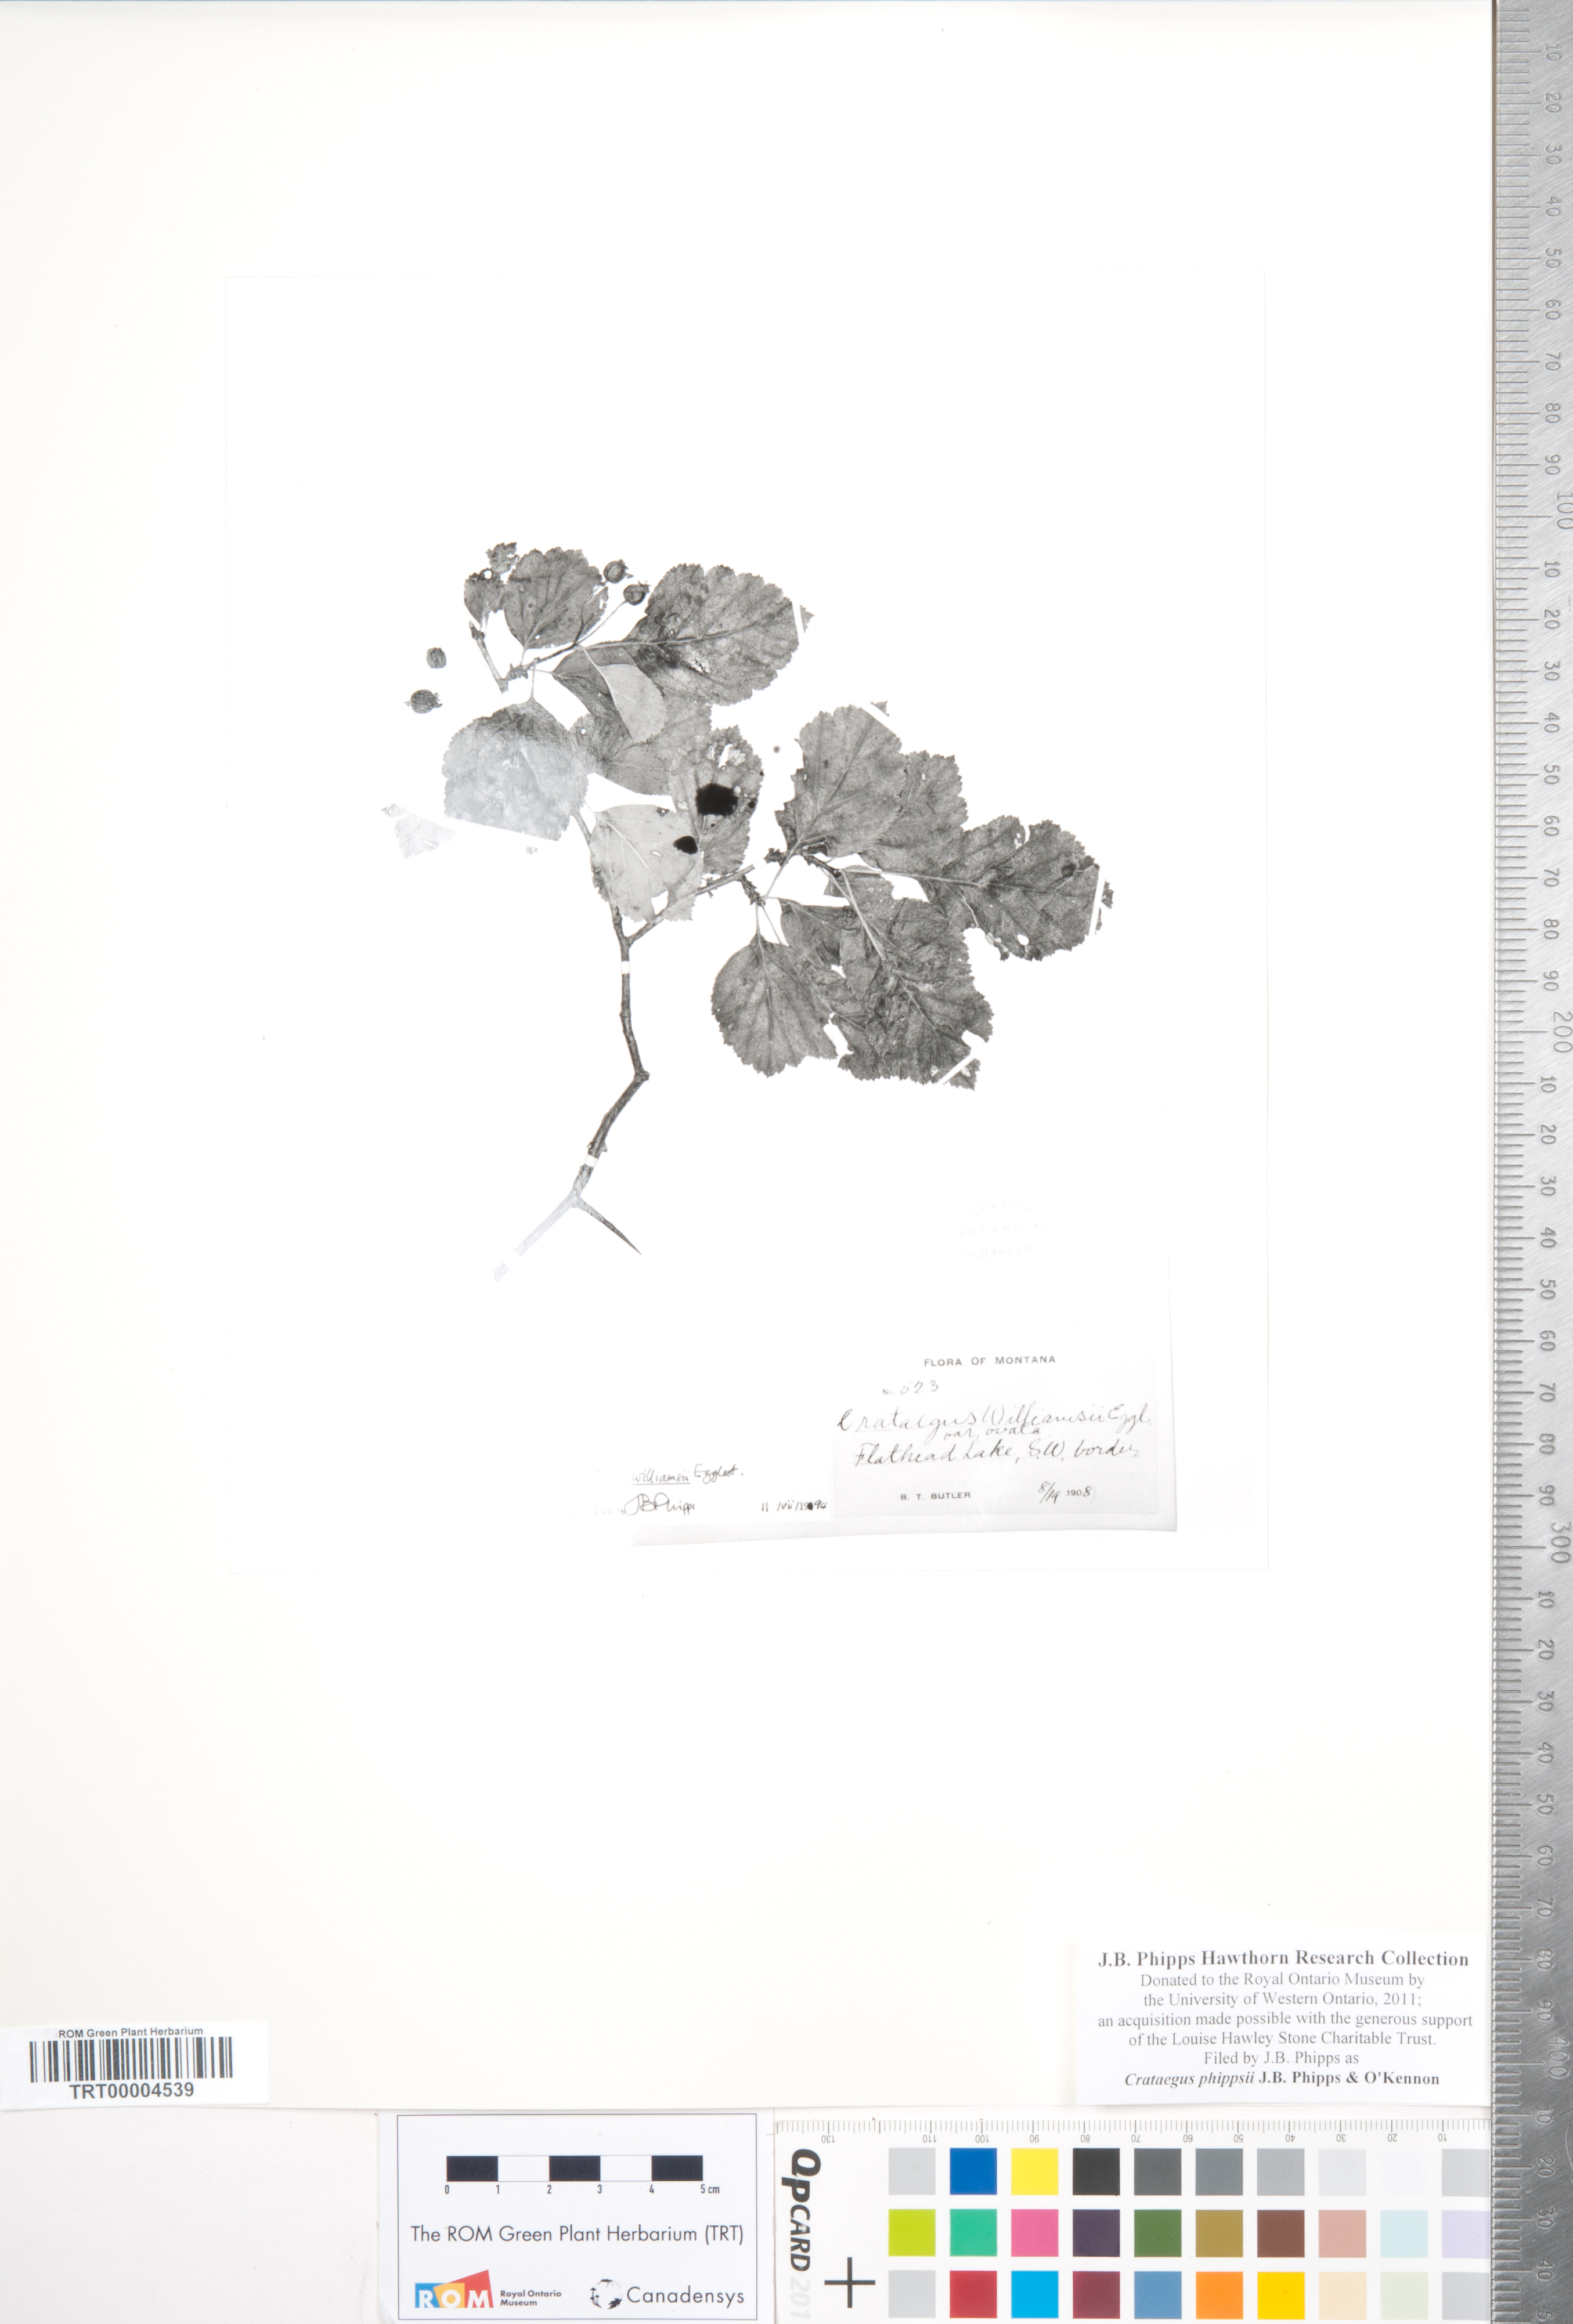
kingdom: Plantae
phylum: Tracheophyta
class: Magnoliopsida
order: Rosales
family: Rosaceae
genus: Crataegus
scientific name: Crataegus phippsii
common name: Phipps' hawthorn
